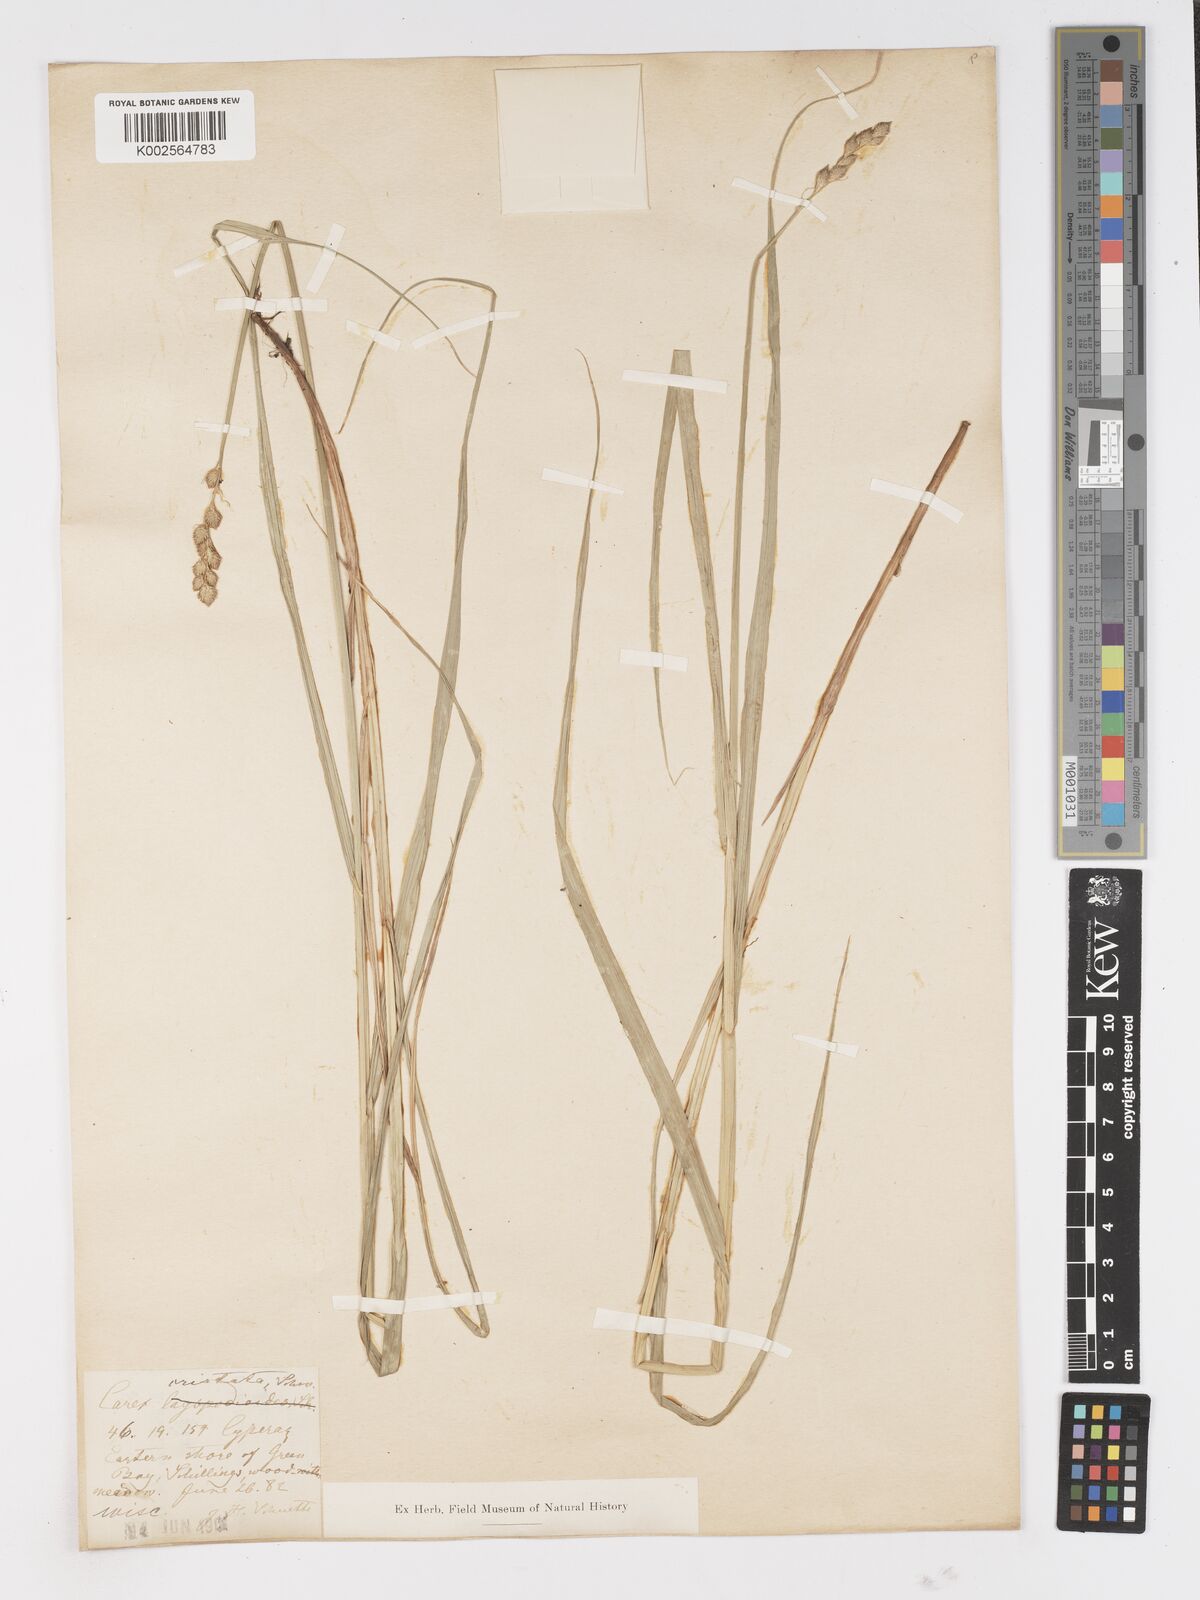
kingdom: Plantae
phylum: Tracheophyta
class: Liliopsida
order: Poales
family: Cyperaceae
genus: Carex
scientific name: Carex
